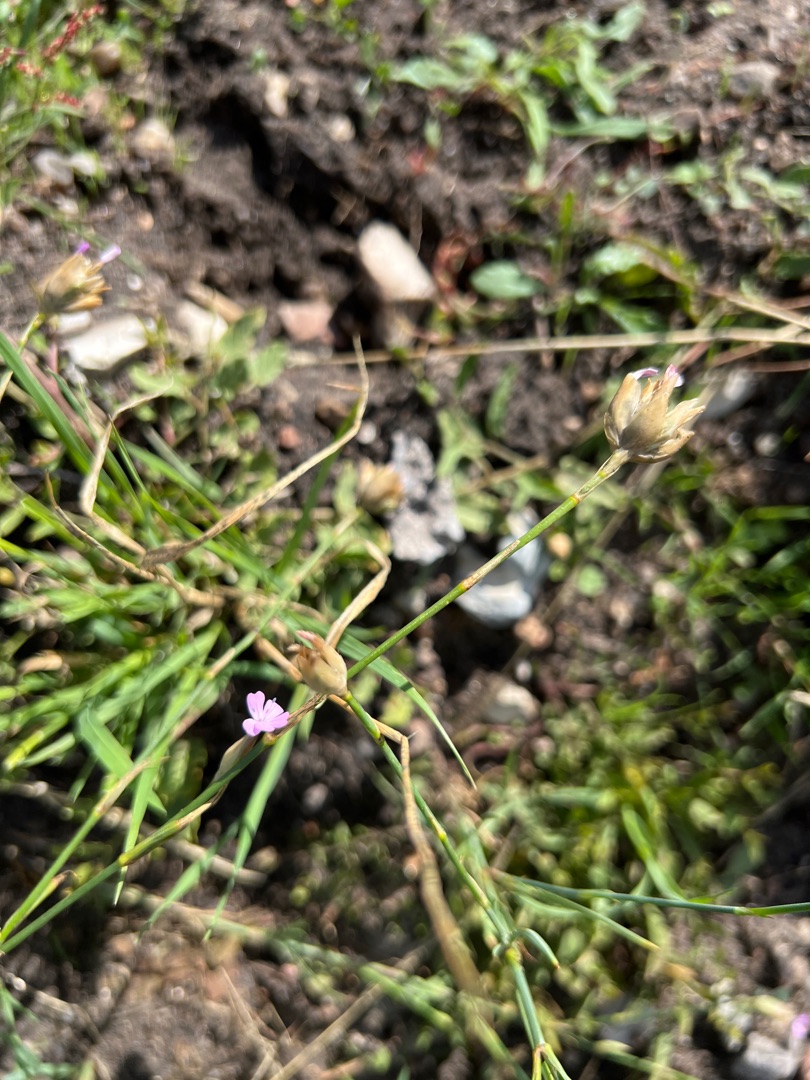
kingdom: Plantae
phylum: Tracheophyta
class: Magnoliopsida
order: Caryophyllales
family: Caryophyllaceae
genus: Petrorhagia
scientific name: Petrorhagia prolifera
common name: Knopnellike
